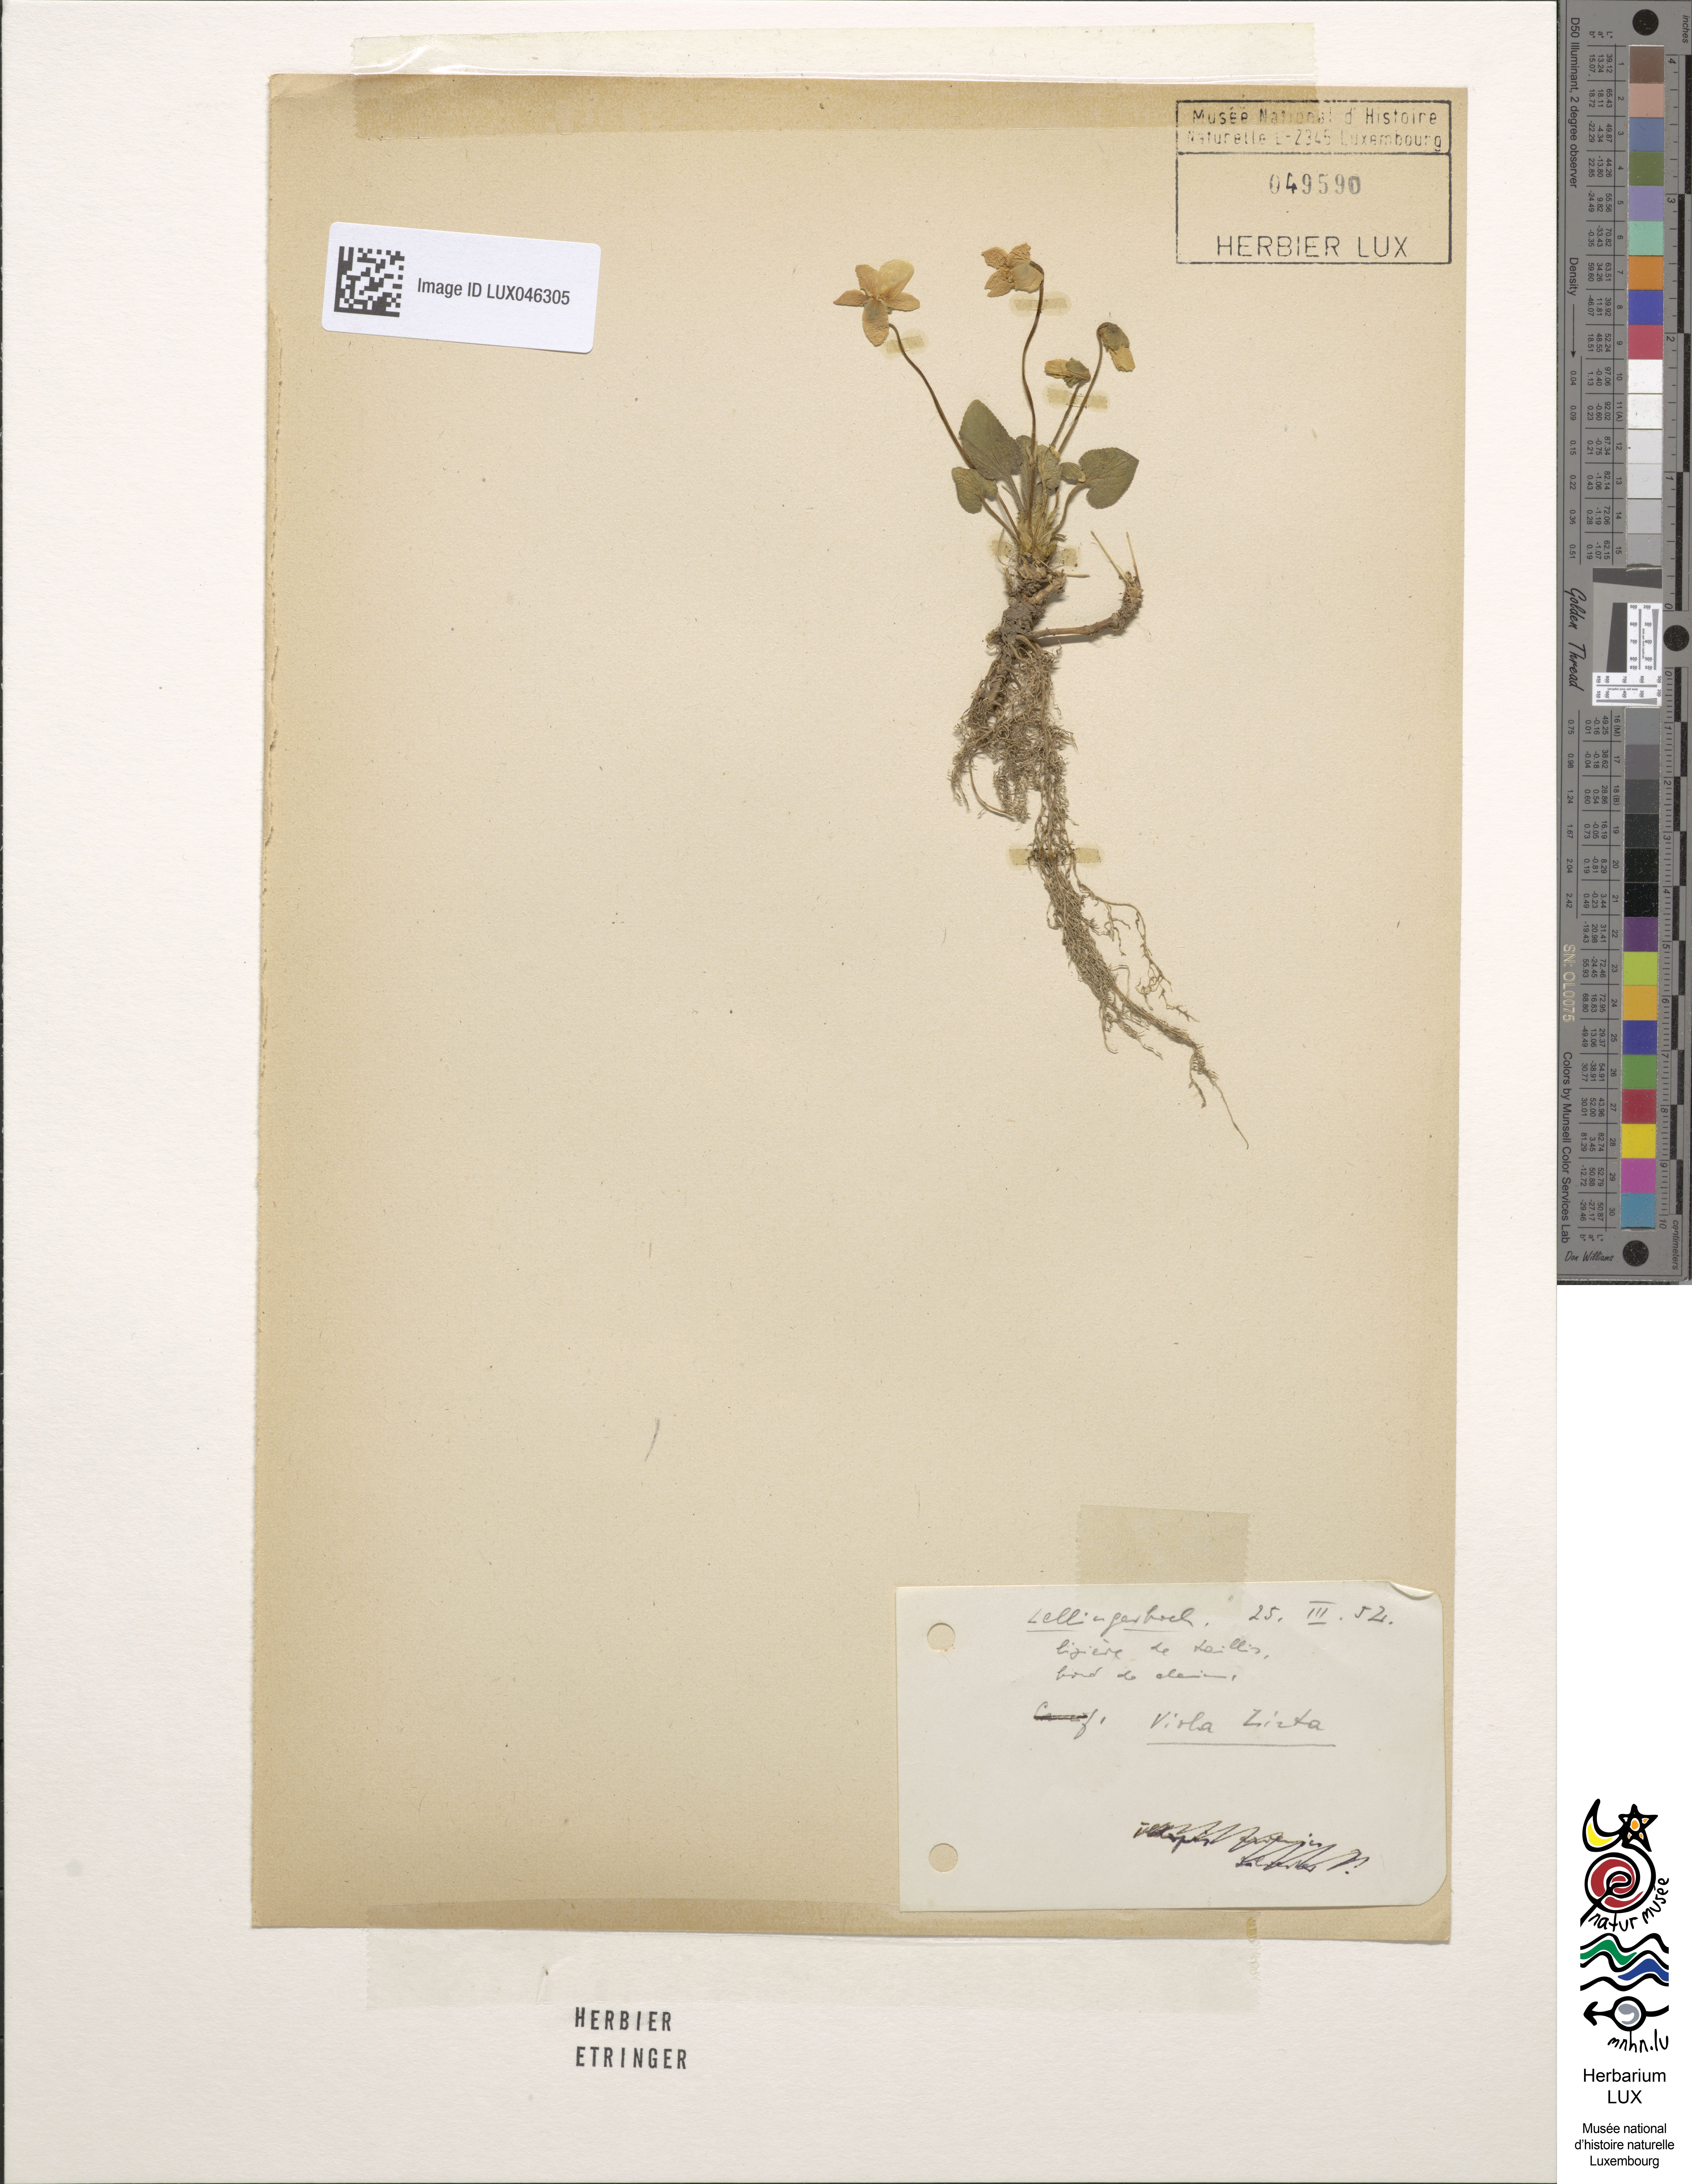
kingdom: Plantae
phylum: Tracheophyta
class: Magnoliopsida
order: Malpighiales
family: Violaceae
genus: Viola
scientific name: Viola hirta
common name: Hairy violet
